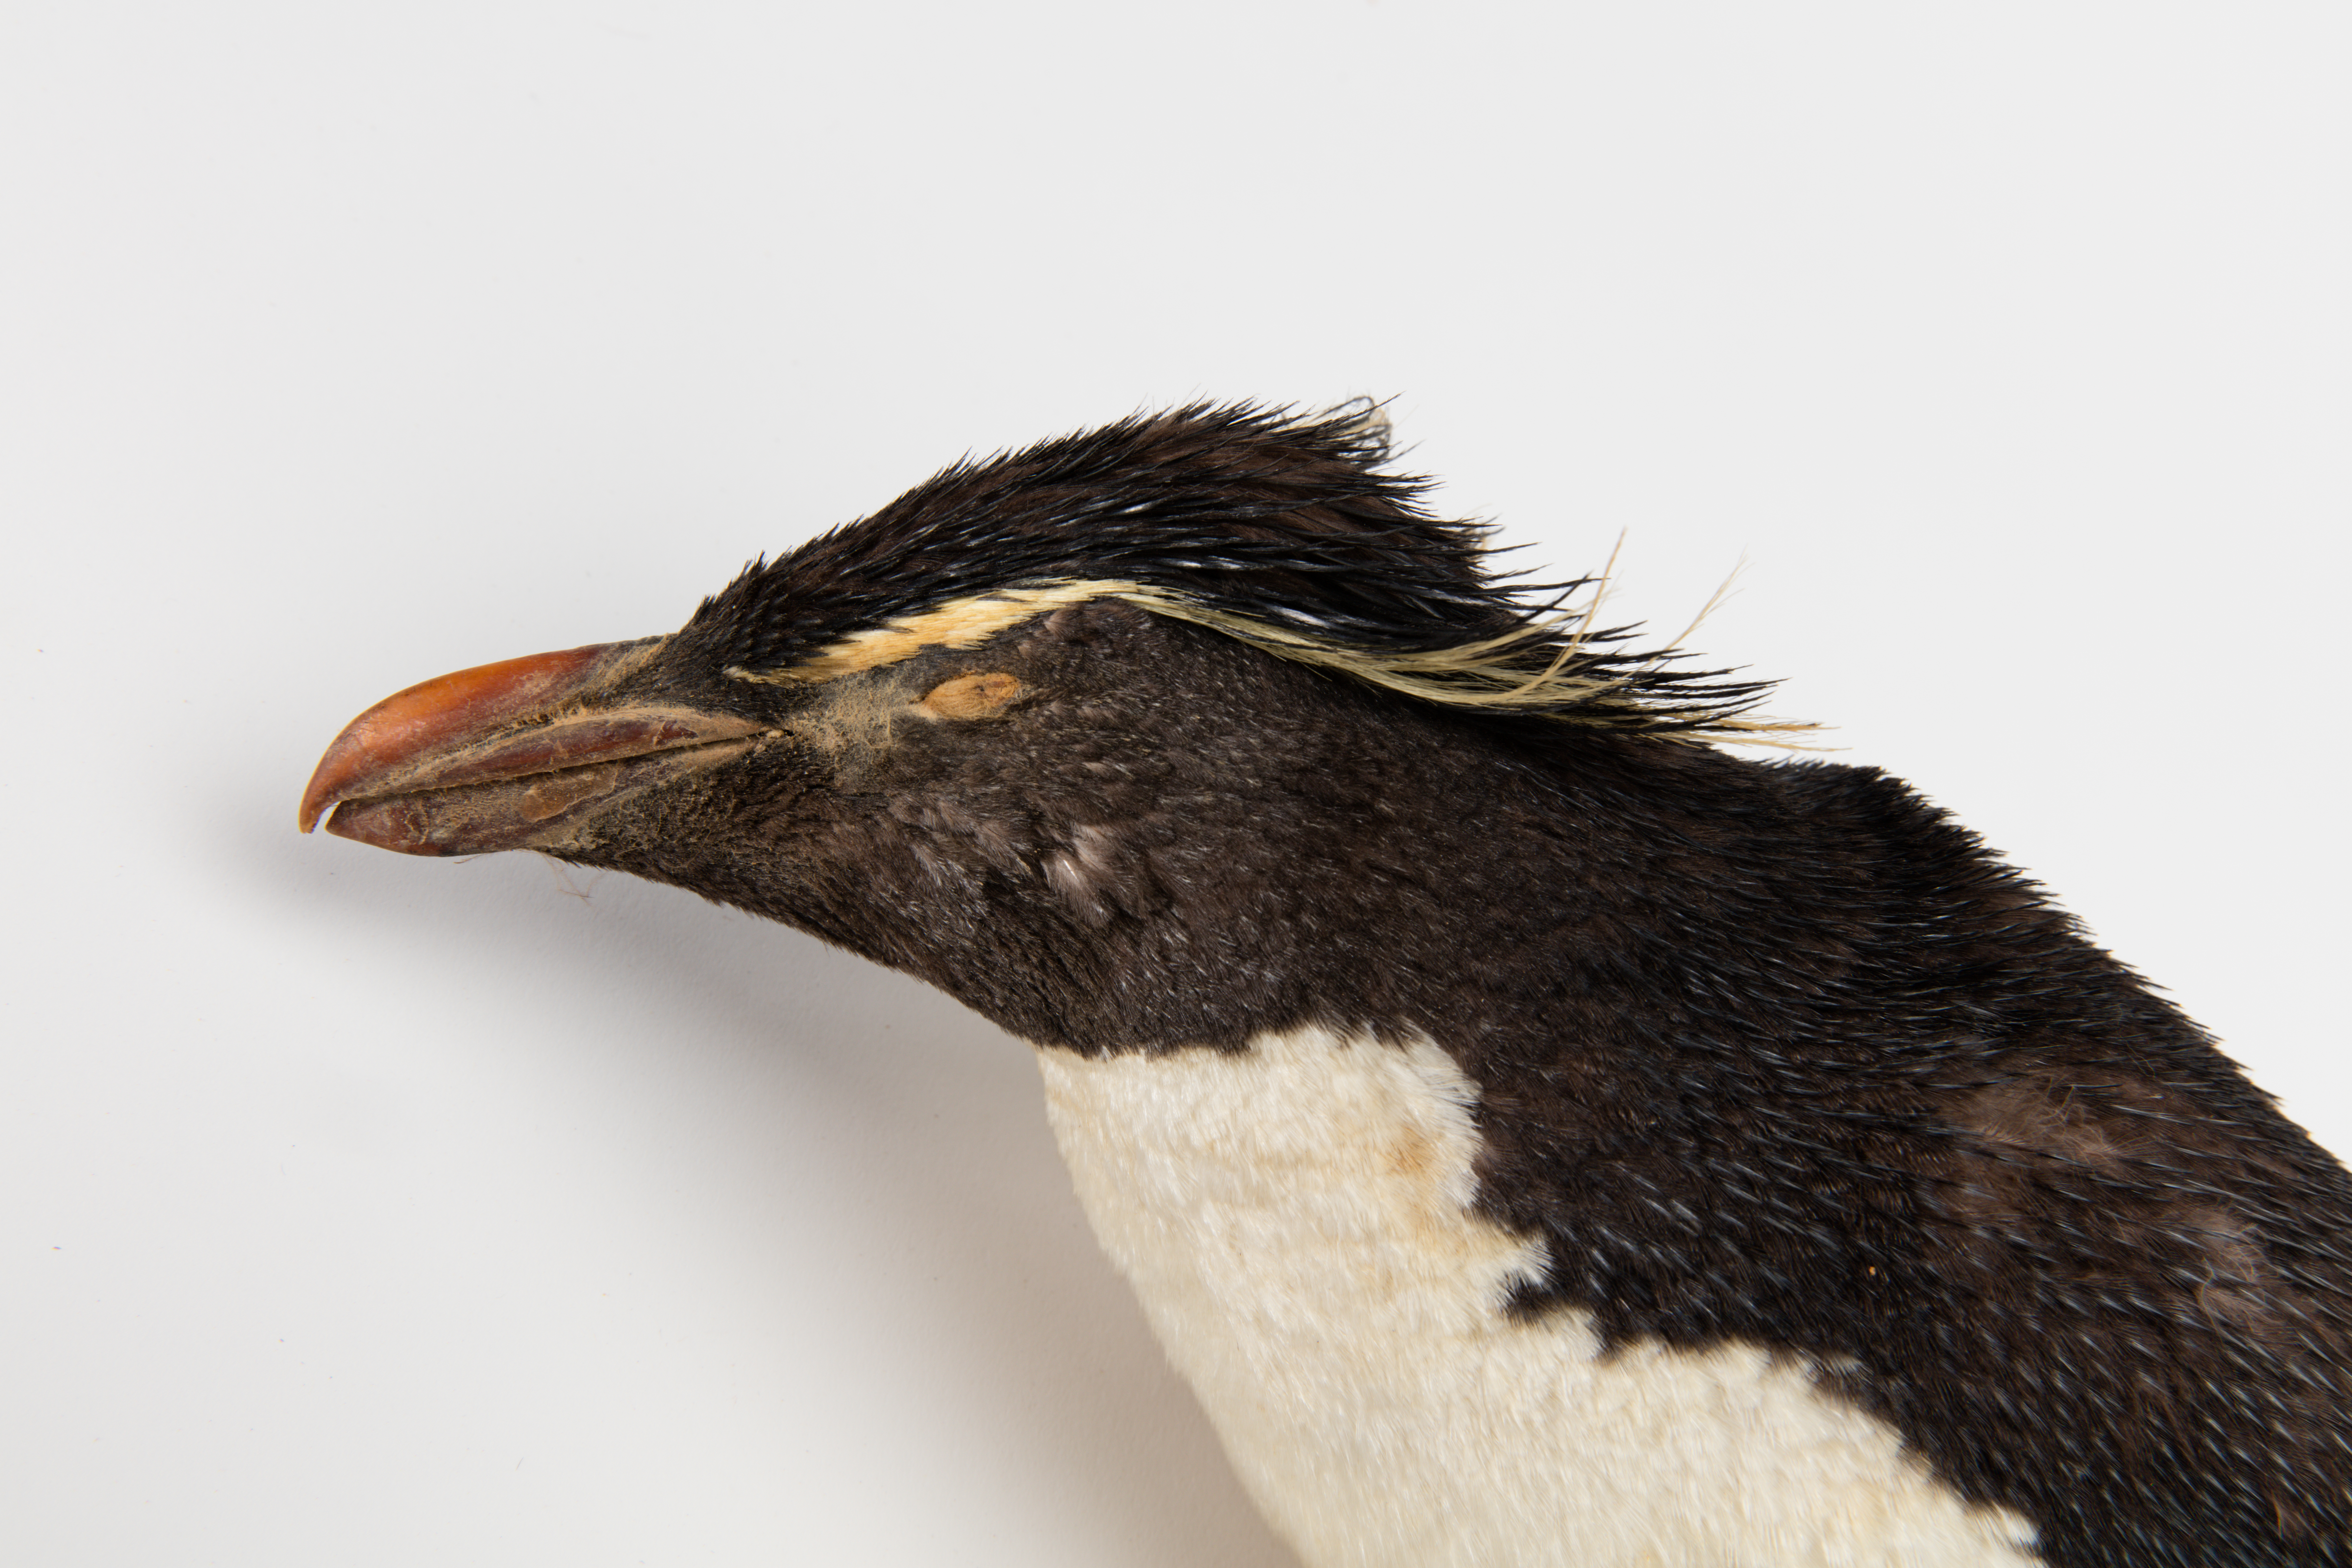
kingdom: Animalia
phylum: Chordata
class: Aves
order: Sphenisciformes
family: Spheniscidae
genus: Eudyptes
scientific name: Eudyptes chrysocome
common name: Southern rockhopper penguin
